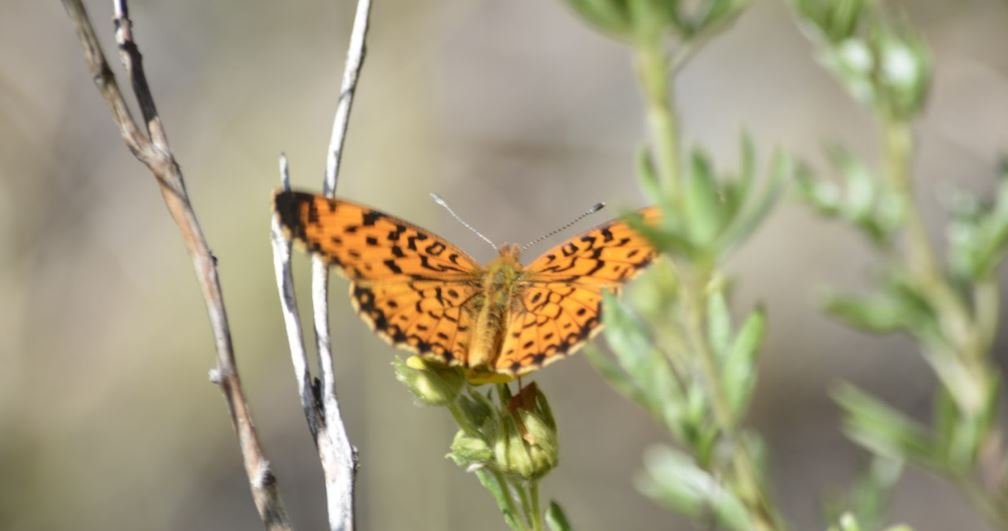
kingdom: Animalia
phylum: Arthropoda
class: Insecta
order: Lepidoptera
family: Nymphalidae
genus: Boloria
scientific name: Boloria selene
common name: Silver-bordered Fritillary
